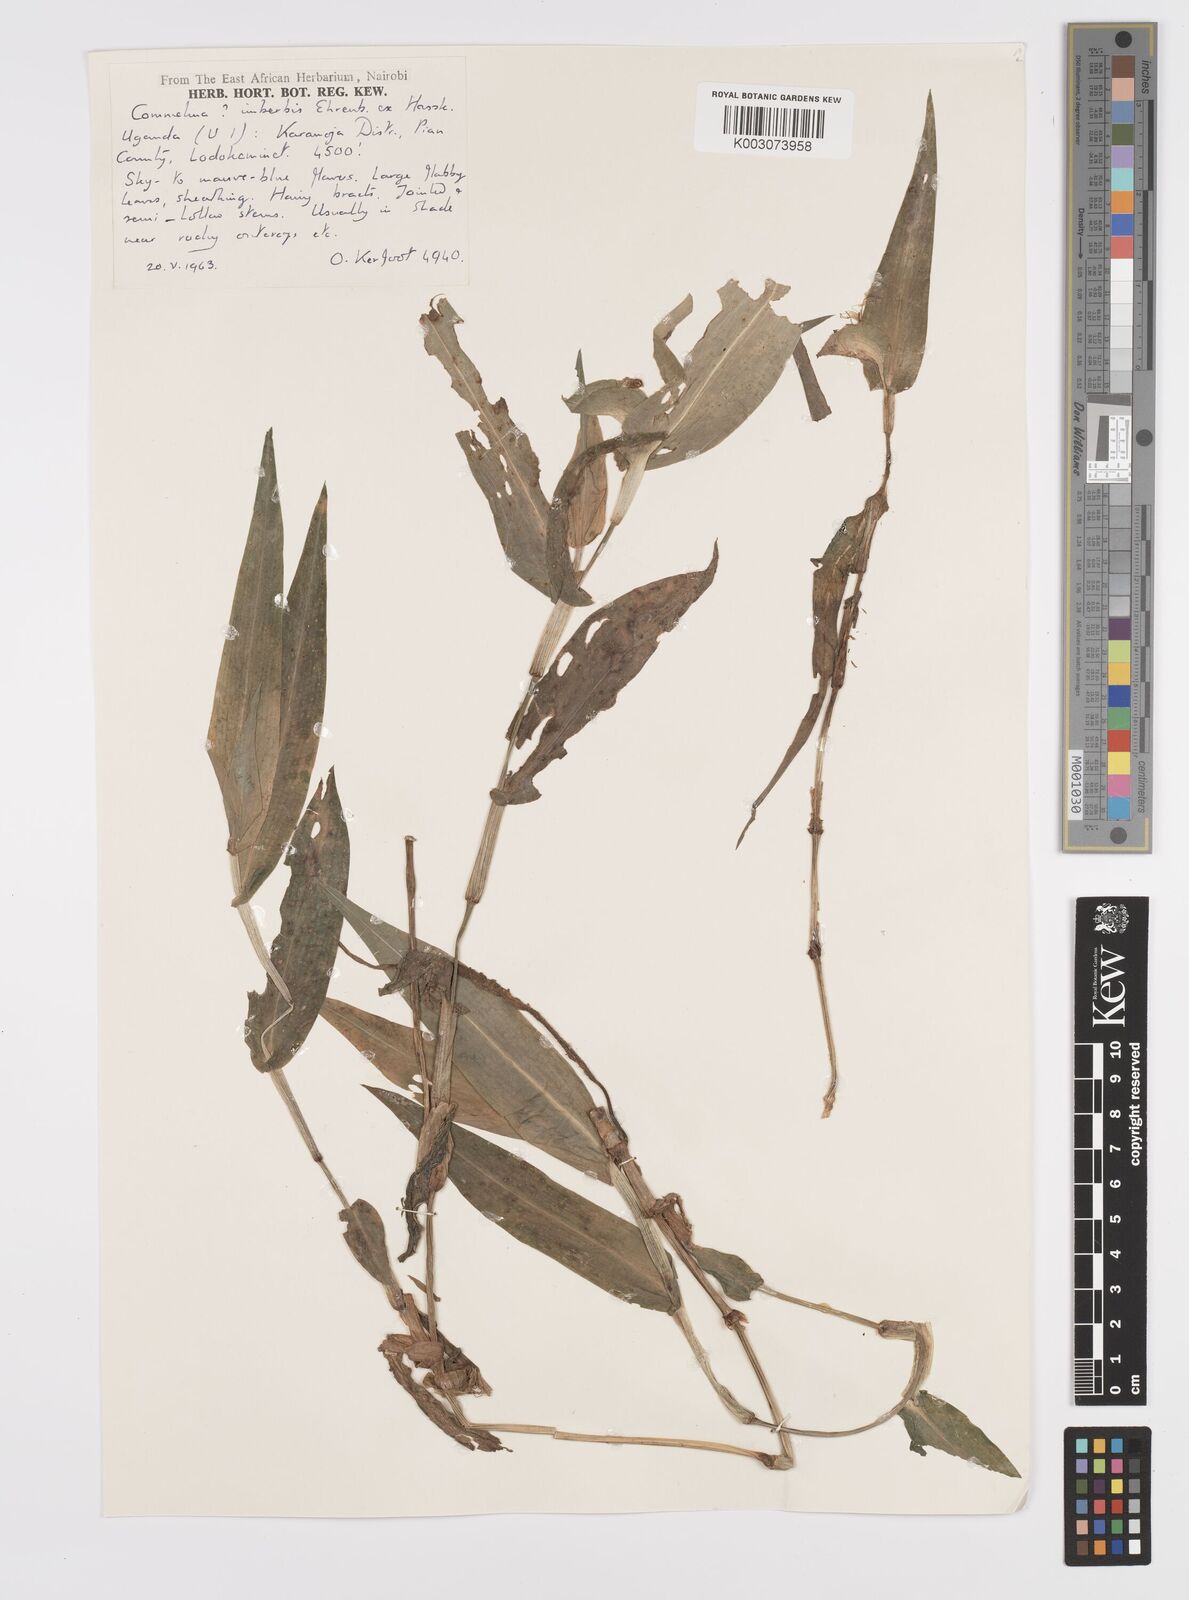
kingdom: Plantae
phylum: Tracheophyta
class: Liliopsida
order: Commelinales
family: Commelinaceae
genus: Commelina
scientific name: Commelina imberbis
